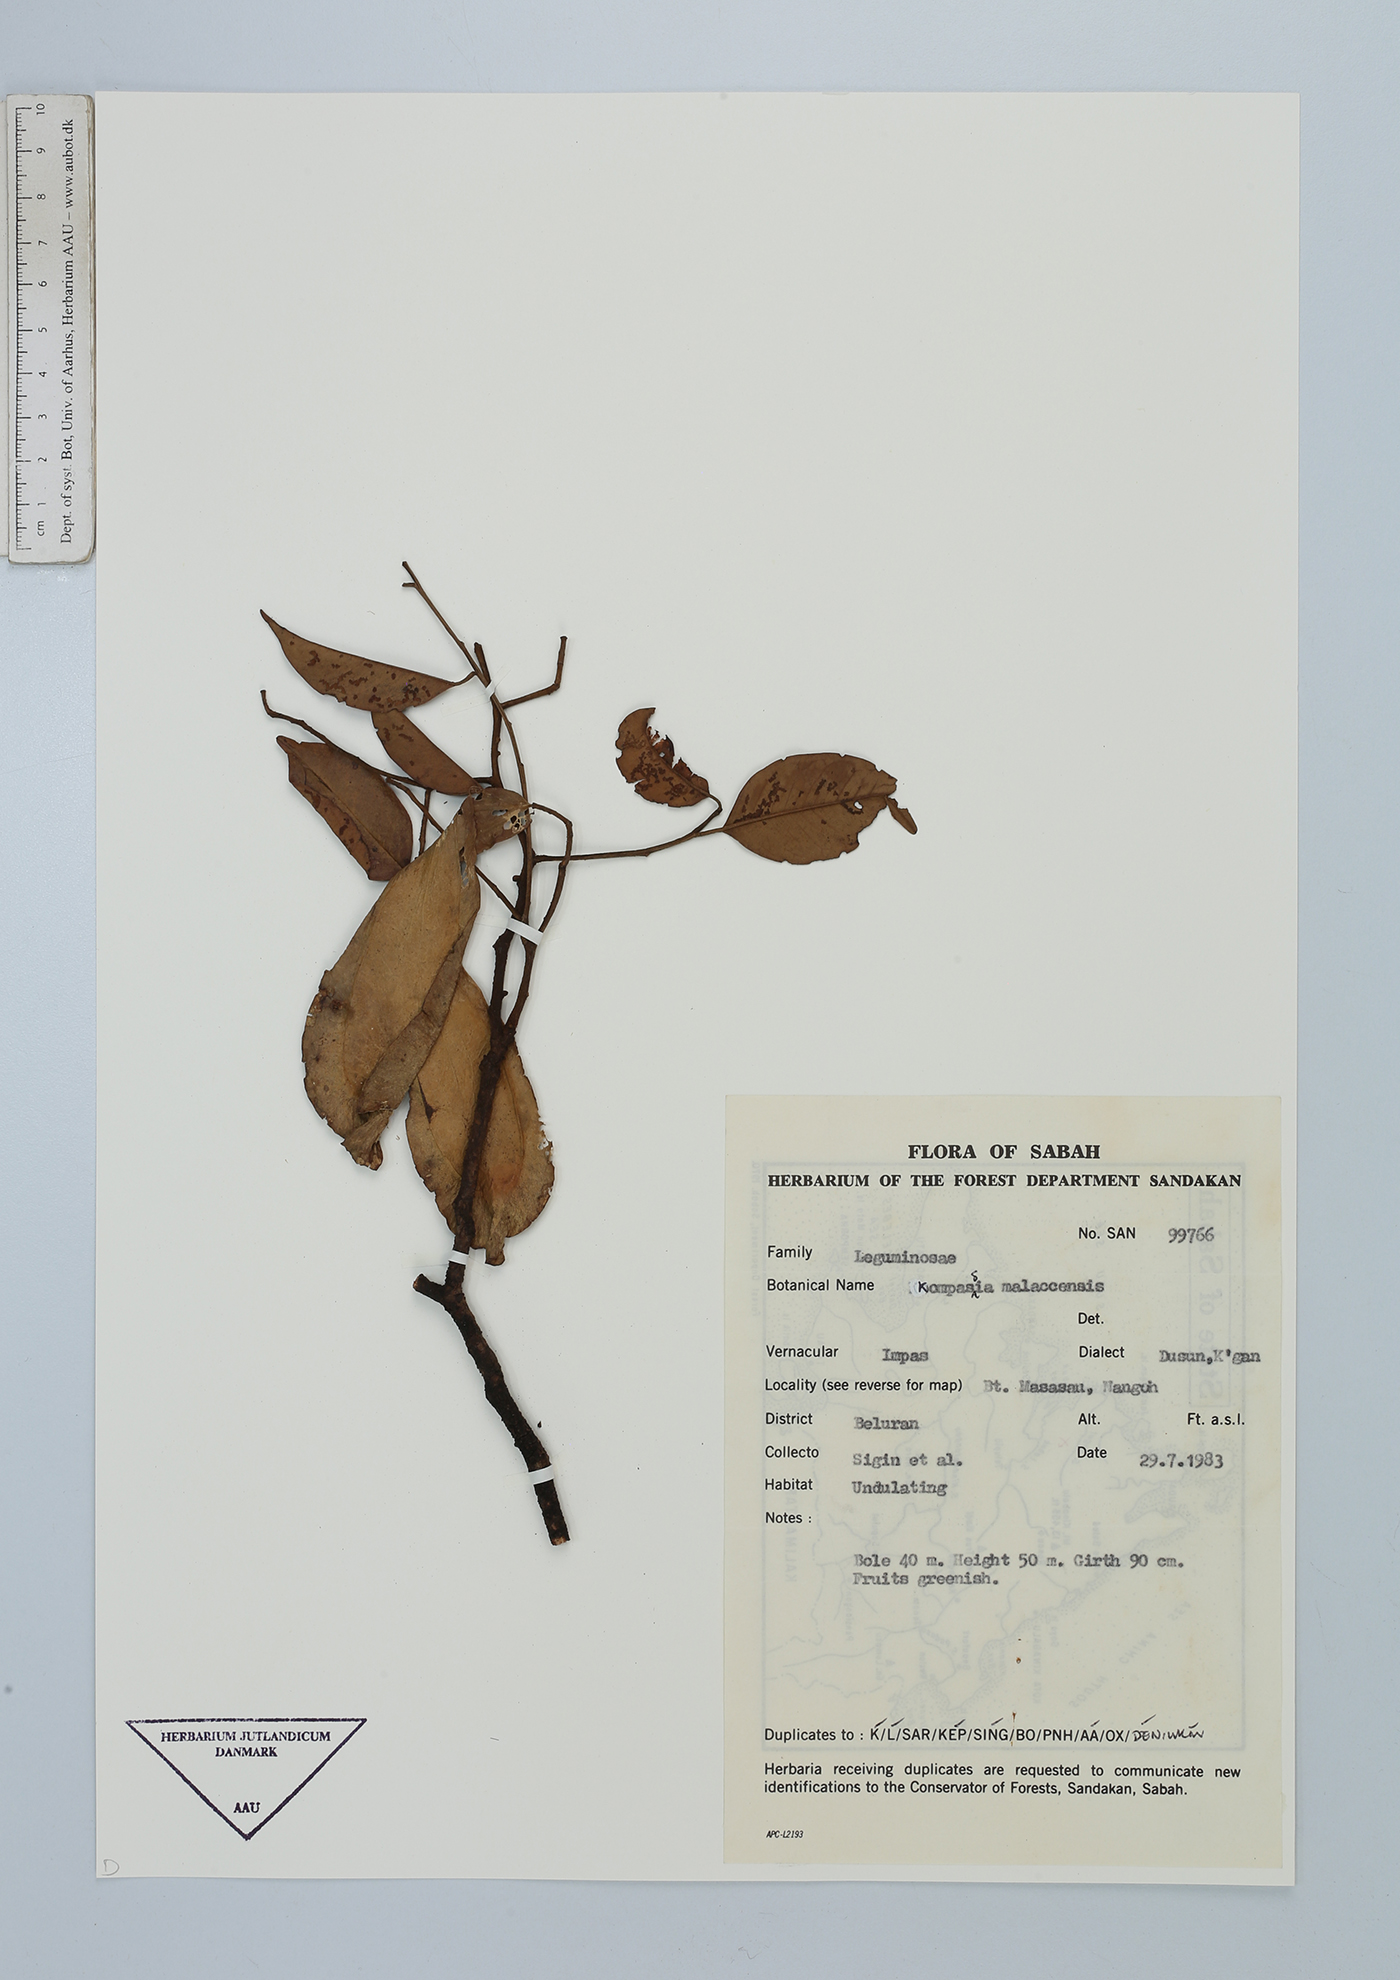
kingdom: Plantae
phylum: Tracheophyta
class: Magnoliopsida
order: Fabales
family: Fabaceae
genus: Koompassia
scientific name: Koompassia malaccensis
